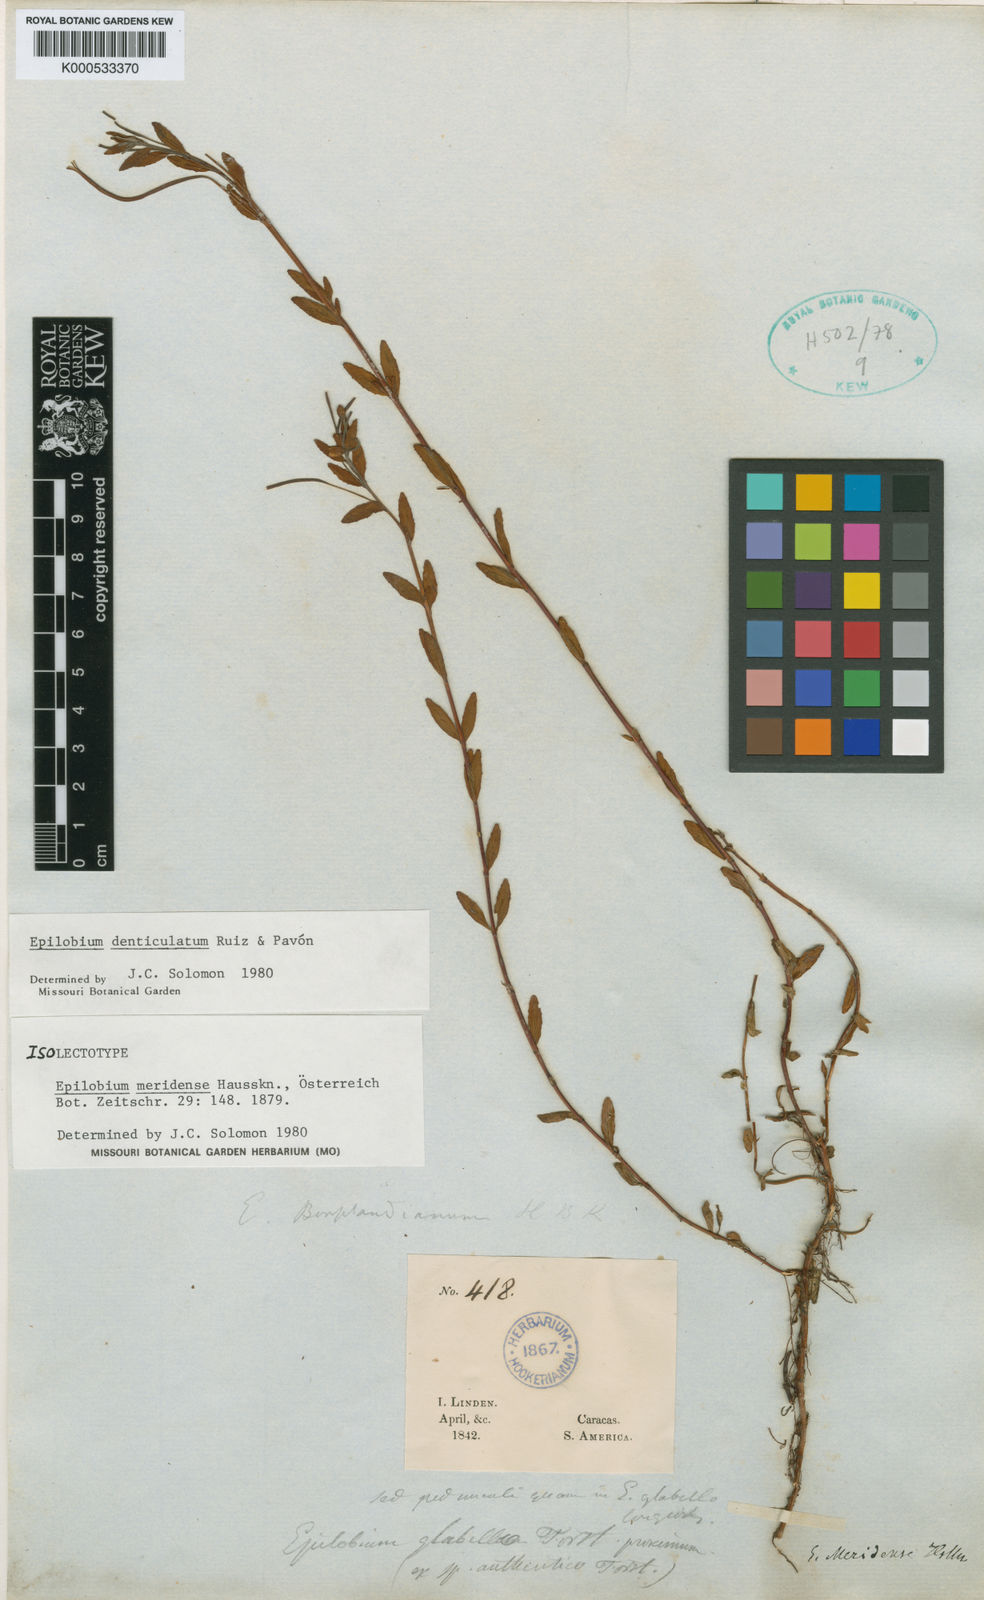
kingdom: Plantae
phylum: Tracheophyta
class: Magnoliopsida
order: Myrtales
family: Onagraceae
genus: Epilobium
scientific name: Epilobium denticulatum
